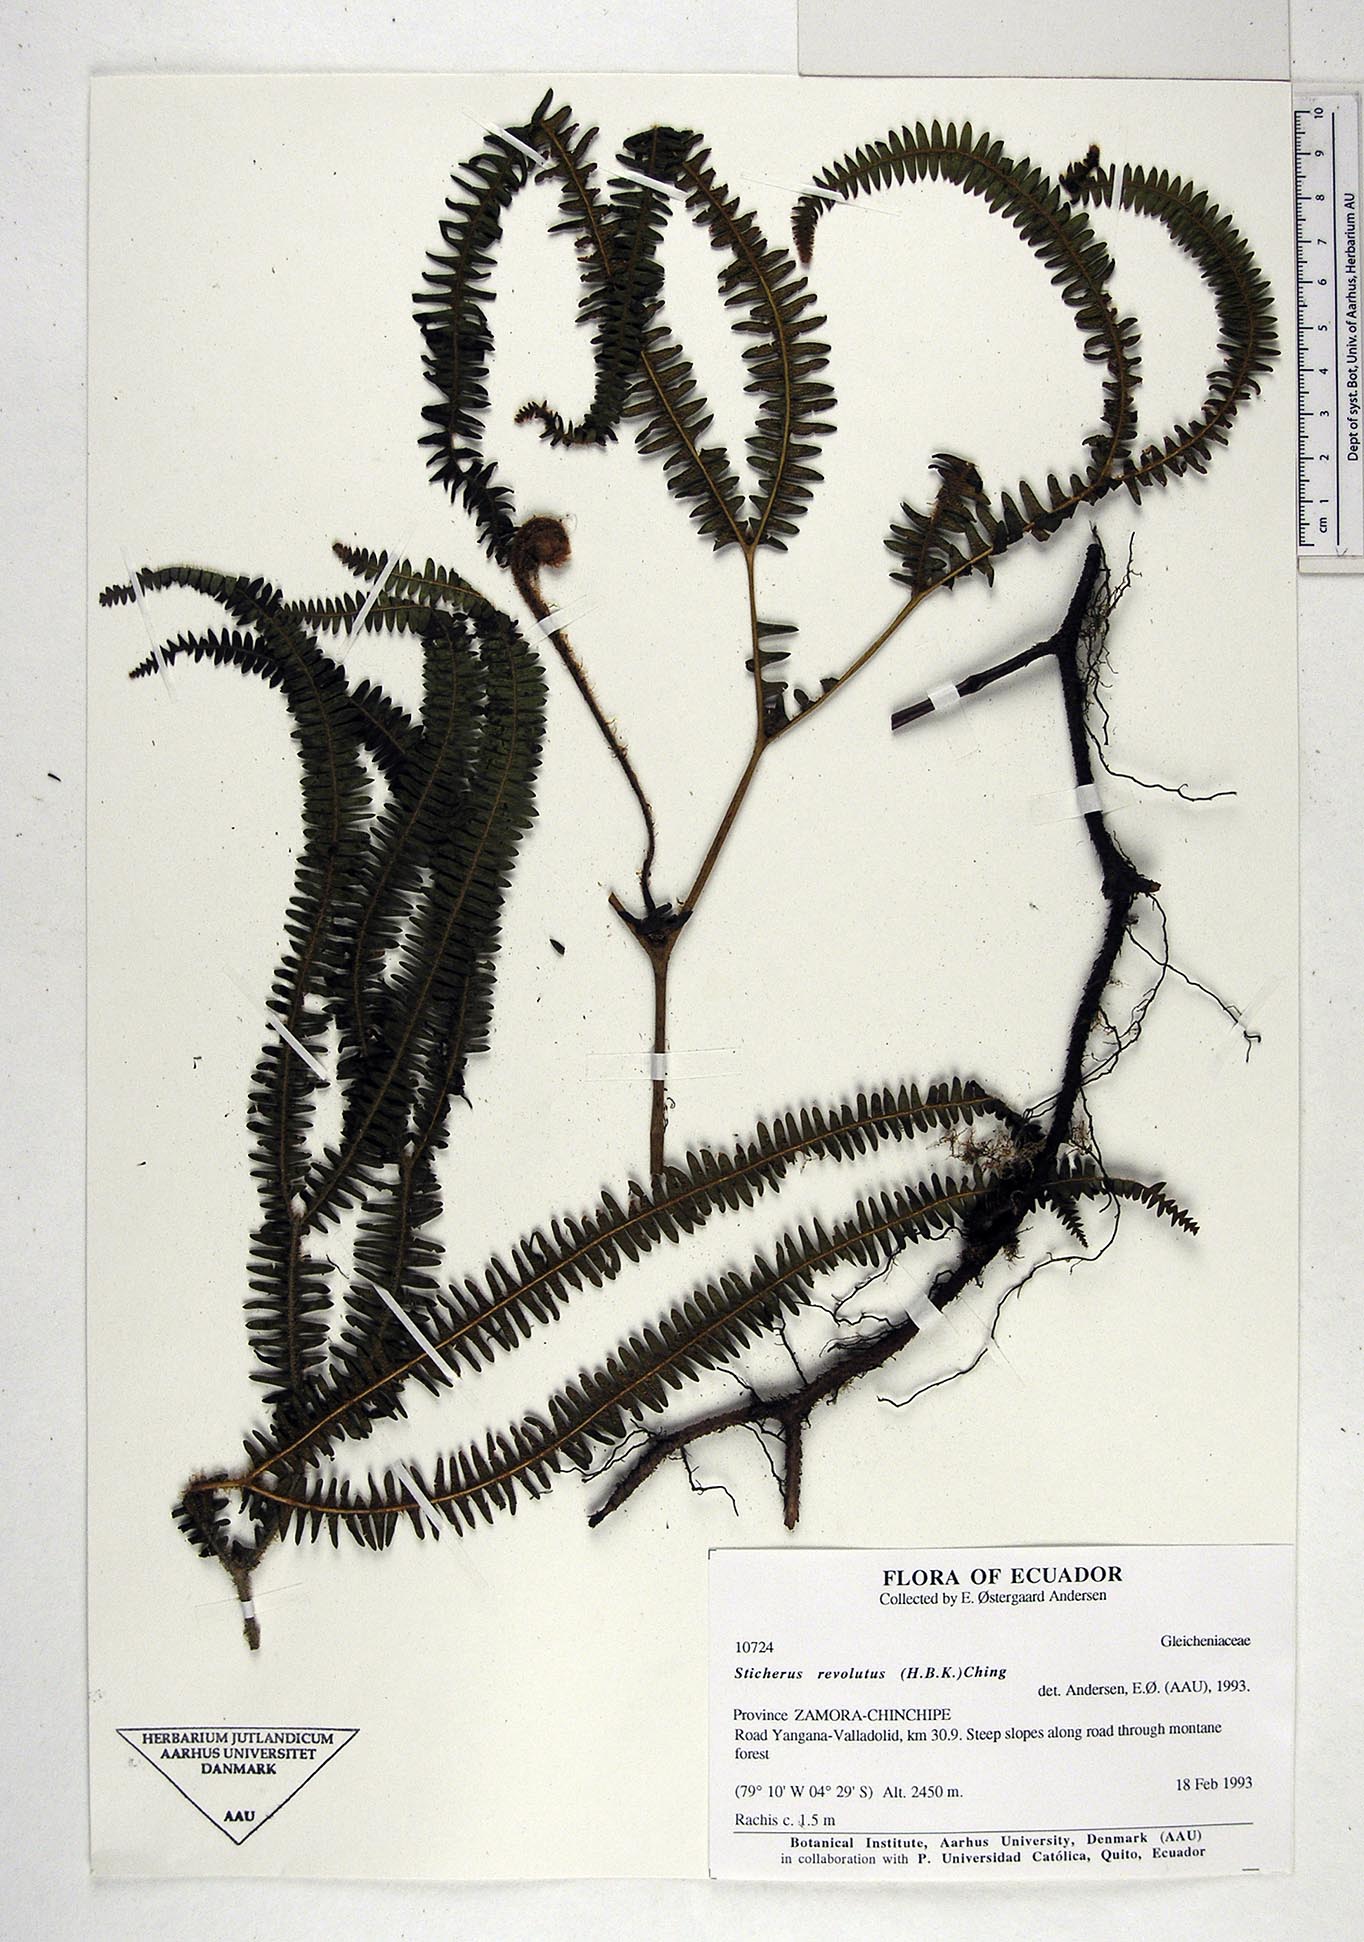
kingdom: Plantae
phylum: Tracheophyta
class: Polypodiopsida
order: Gleicheniales
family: Gleicheniaceae
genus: Sticherus
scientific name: Sticherus revolutus
